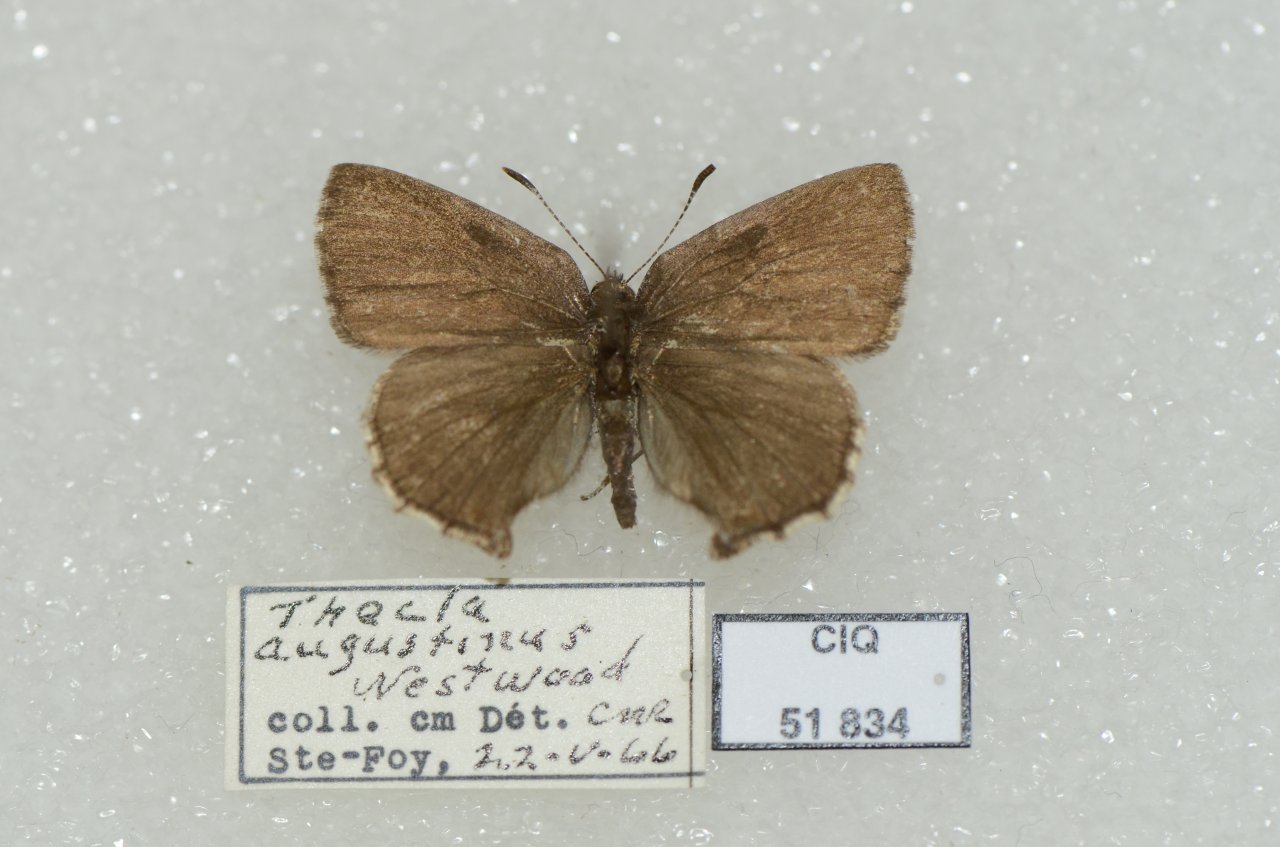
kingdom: Animalia
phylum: Arthropoda
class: Insecta
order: Lepidoptera
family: Lycaenidae
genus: Incisalia
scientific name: Incisalia irioides
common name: Brown Elfin
